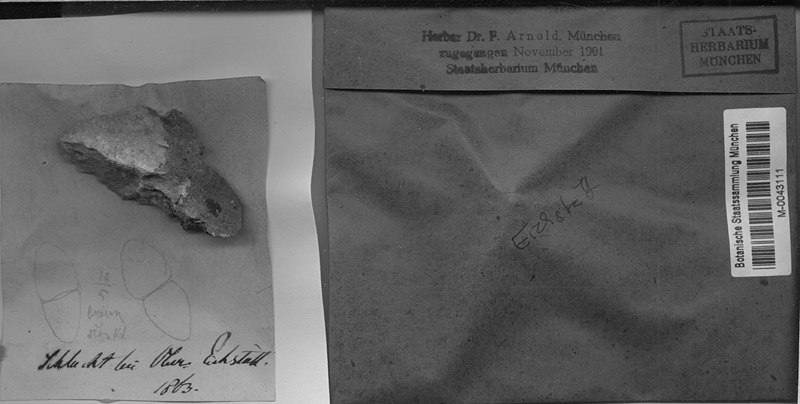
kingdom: Fungi
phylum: Ascomycota
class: Dothideomycetes
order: Trypetheliales
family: Polycoccaceae
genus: Polycoccum
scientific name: Polycoccum marmoratum
